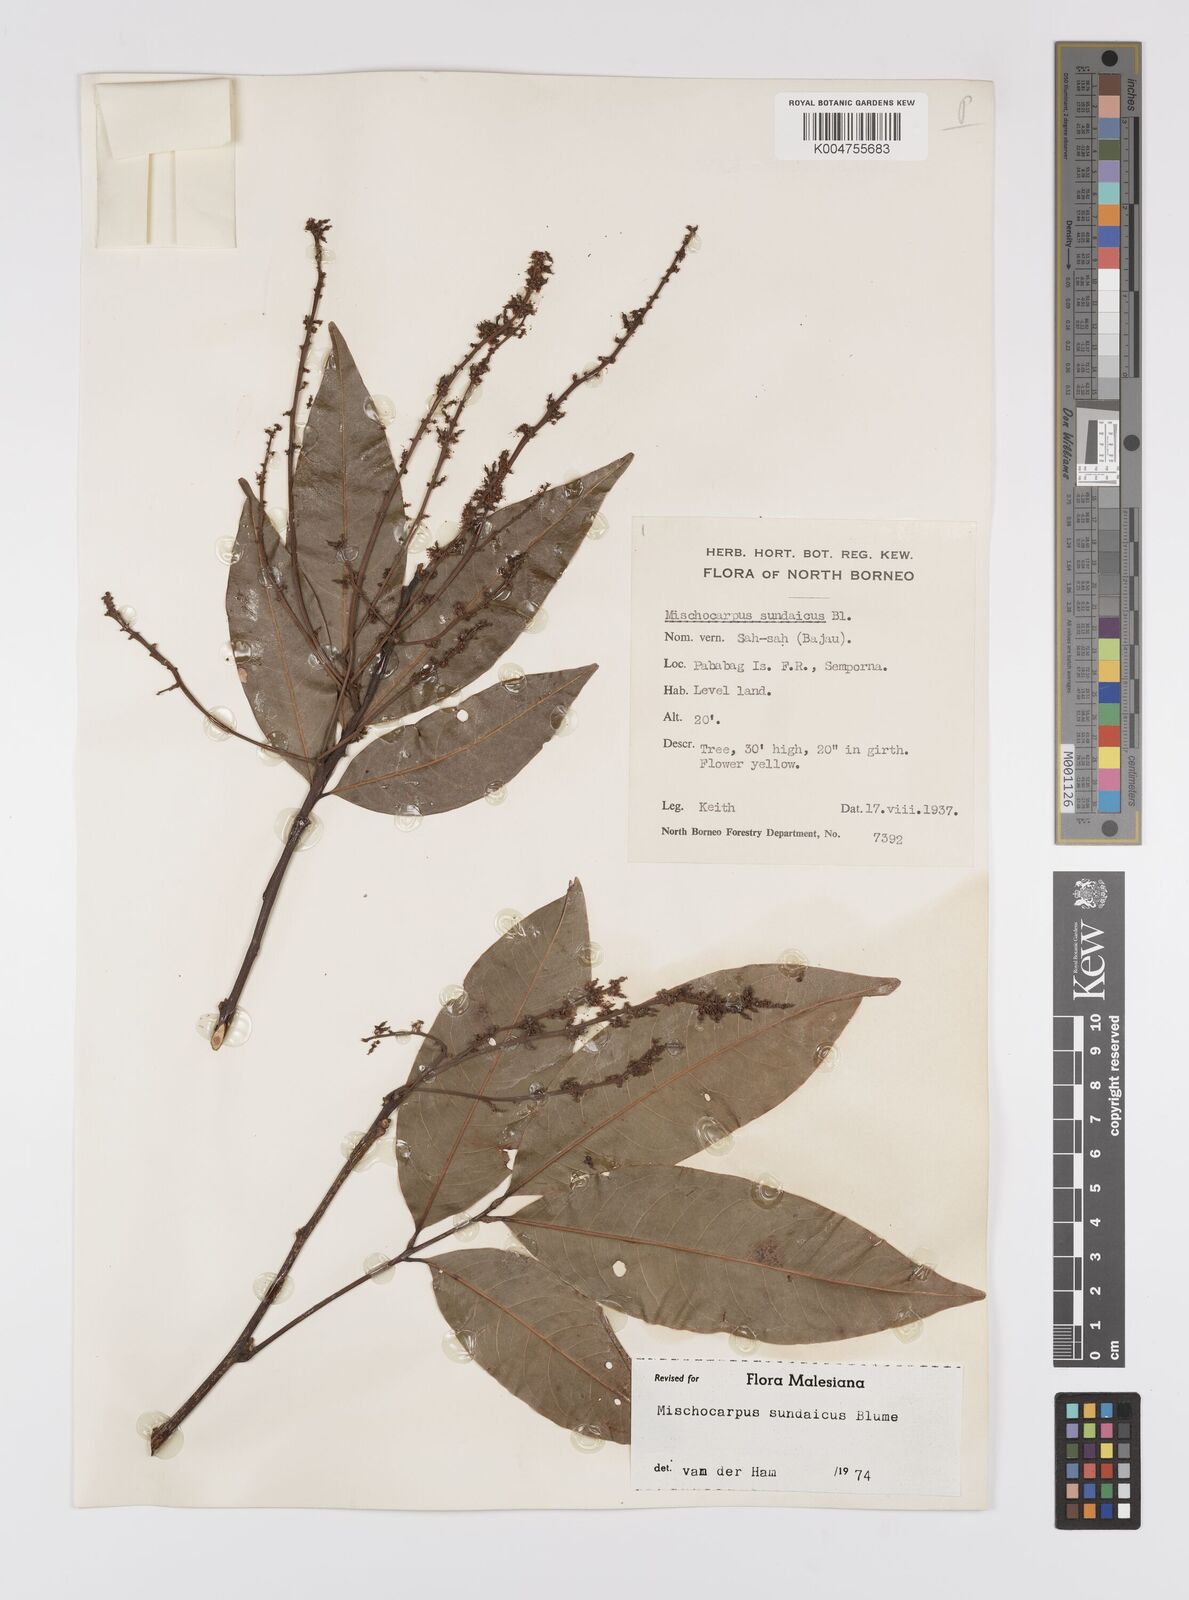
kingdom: Plantae
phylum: Tracheophyta
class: Magnoliopsida
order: Sapindales
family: Sapindaceae
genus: Mischocarpus
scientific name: Mischocarpus sundaicus
